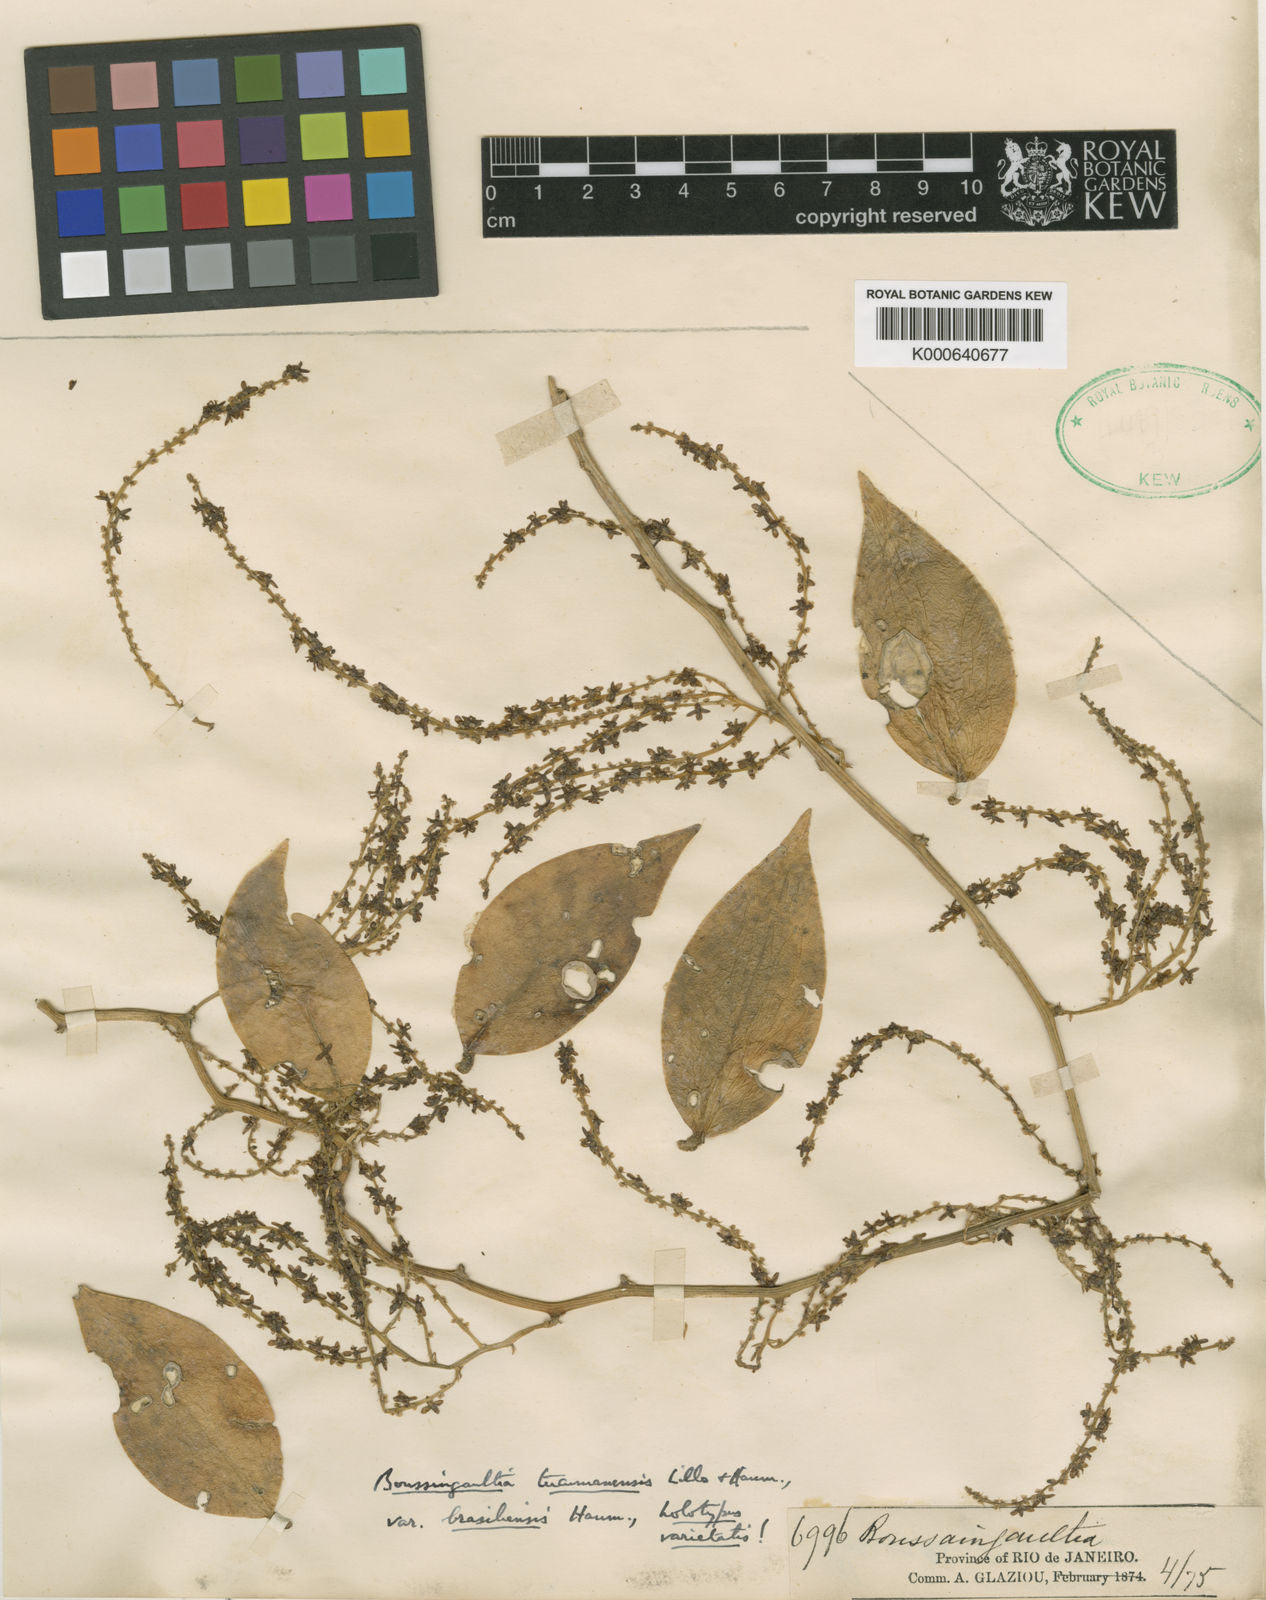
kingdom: Plantae
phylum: Tracheophyta
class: Magnoliopsida
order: Caryophyllales
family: Basellaceae
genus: Anredera
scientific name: Anredera tucumanensis
